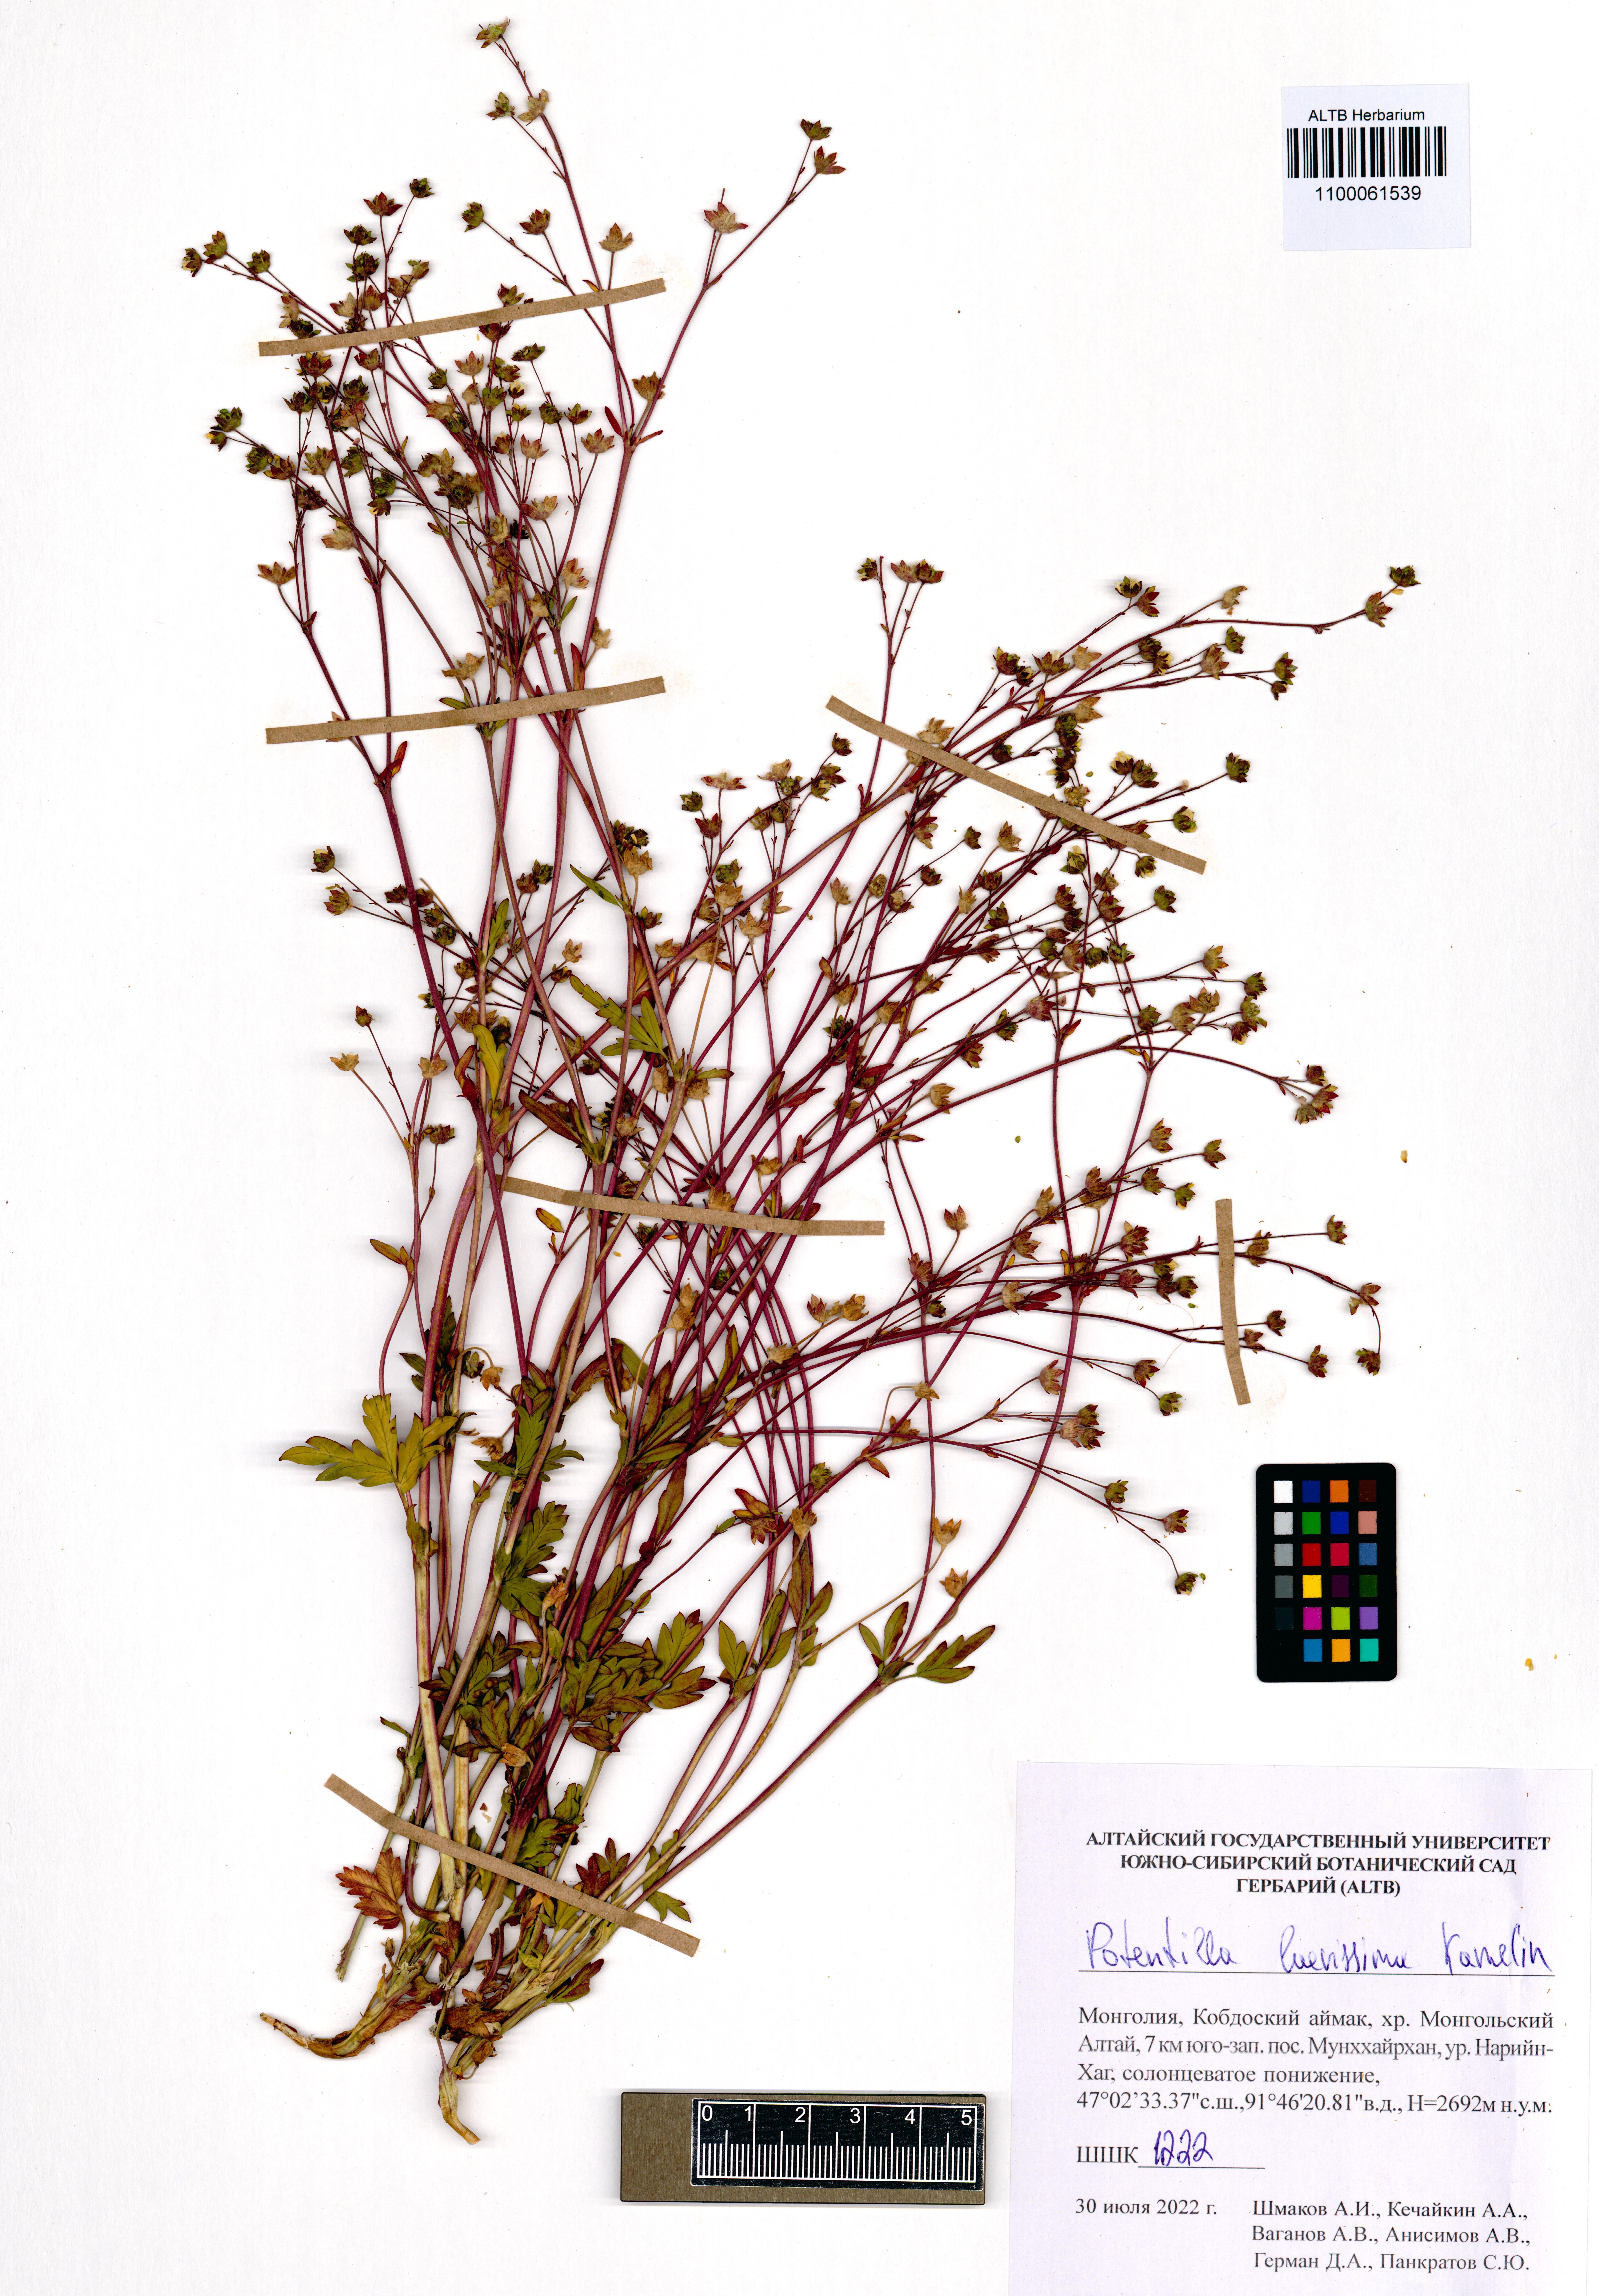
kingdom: Plantae
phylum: Tracheophyta
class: Magnoliopsida
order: Rosales
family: Rosaceae
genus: Potentilla
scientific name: Potentilla laevissima
